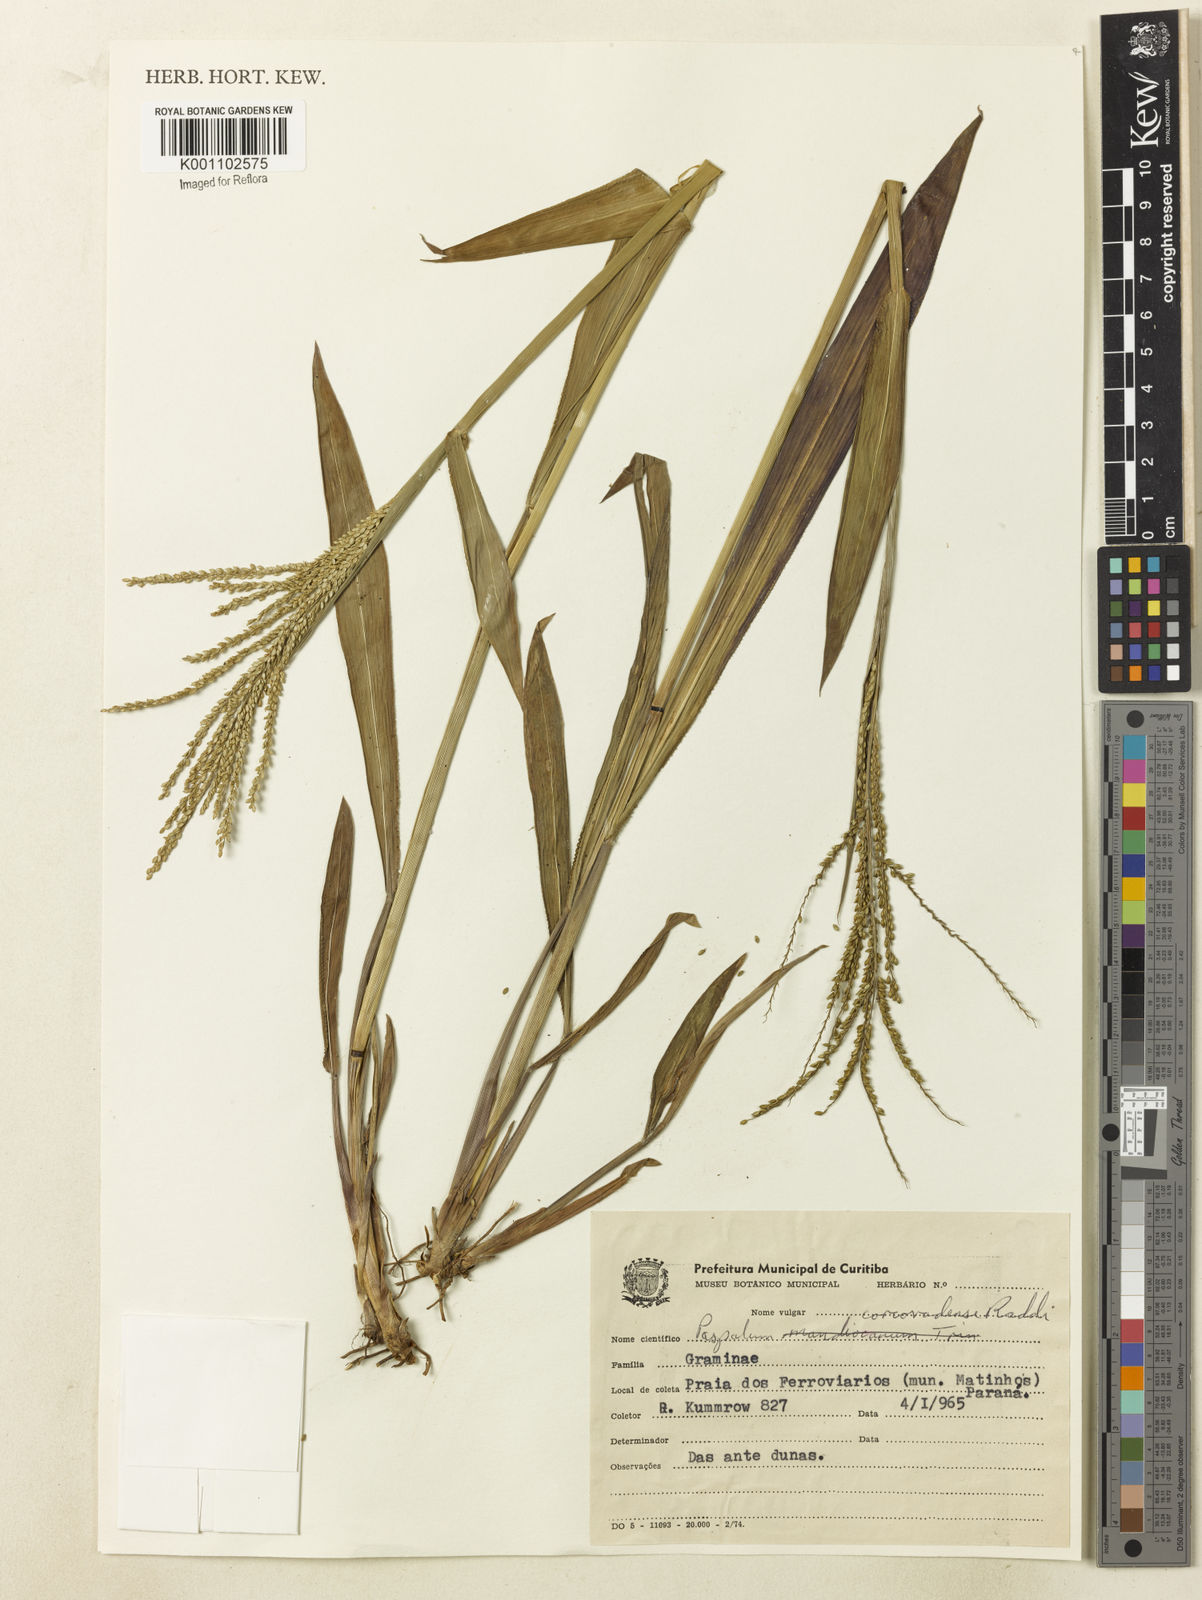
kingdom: Plantae
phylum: Tracheophyta
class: Liliopsida
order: Poales
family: Poaceae
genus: Paspalum
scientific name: Paspalum corcovadense
